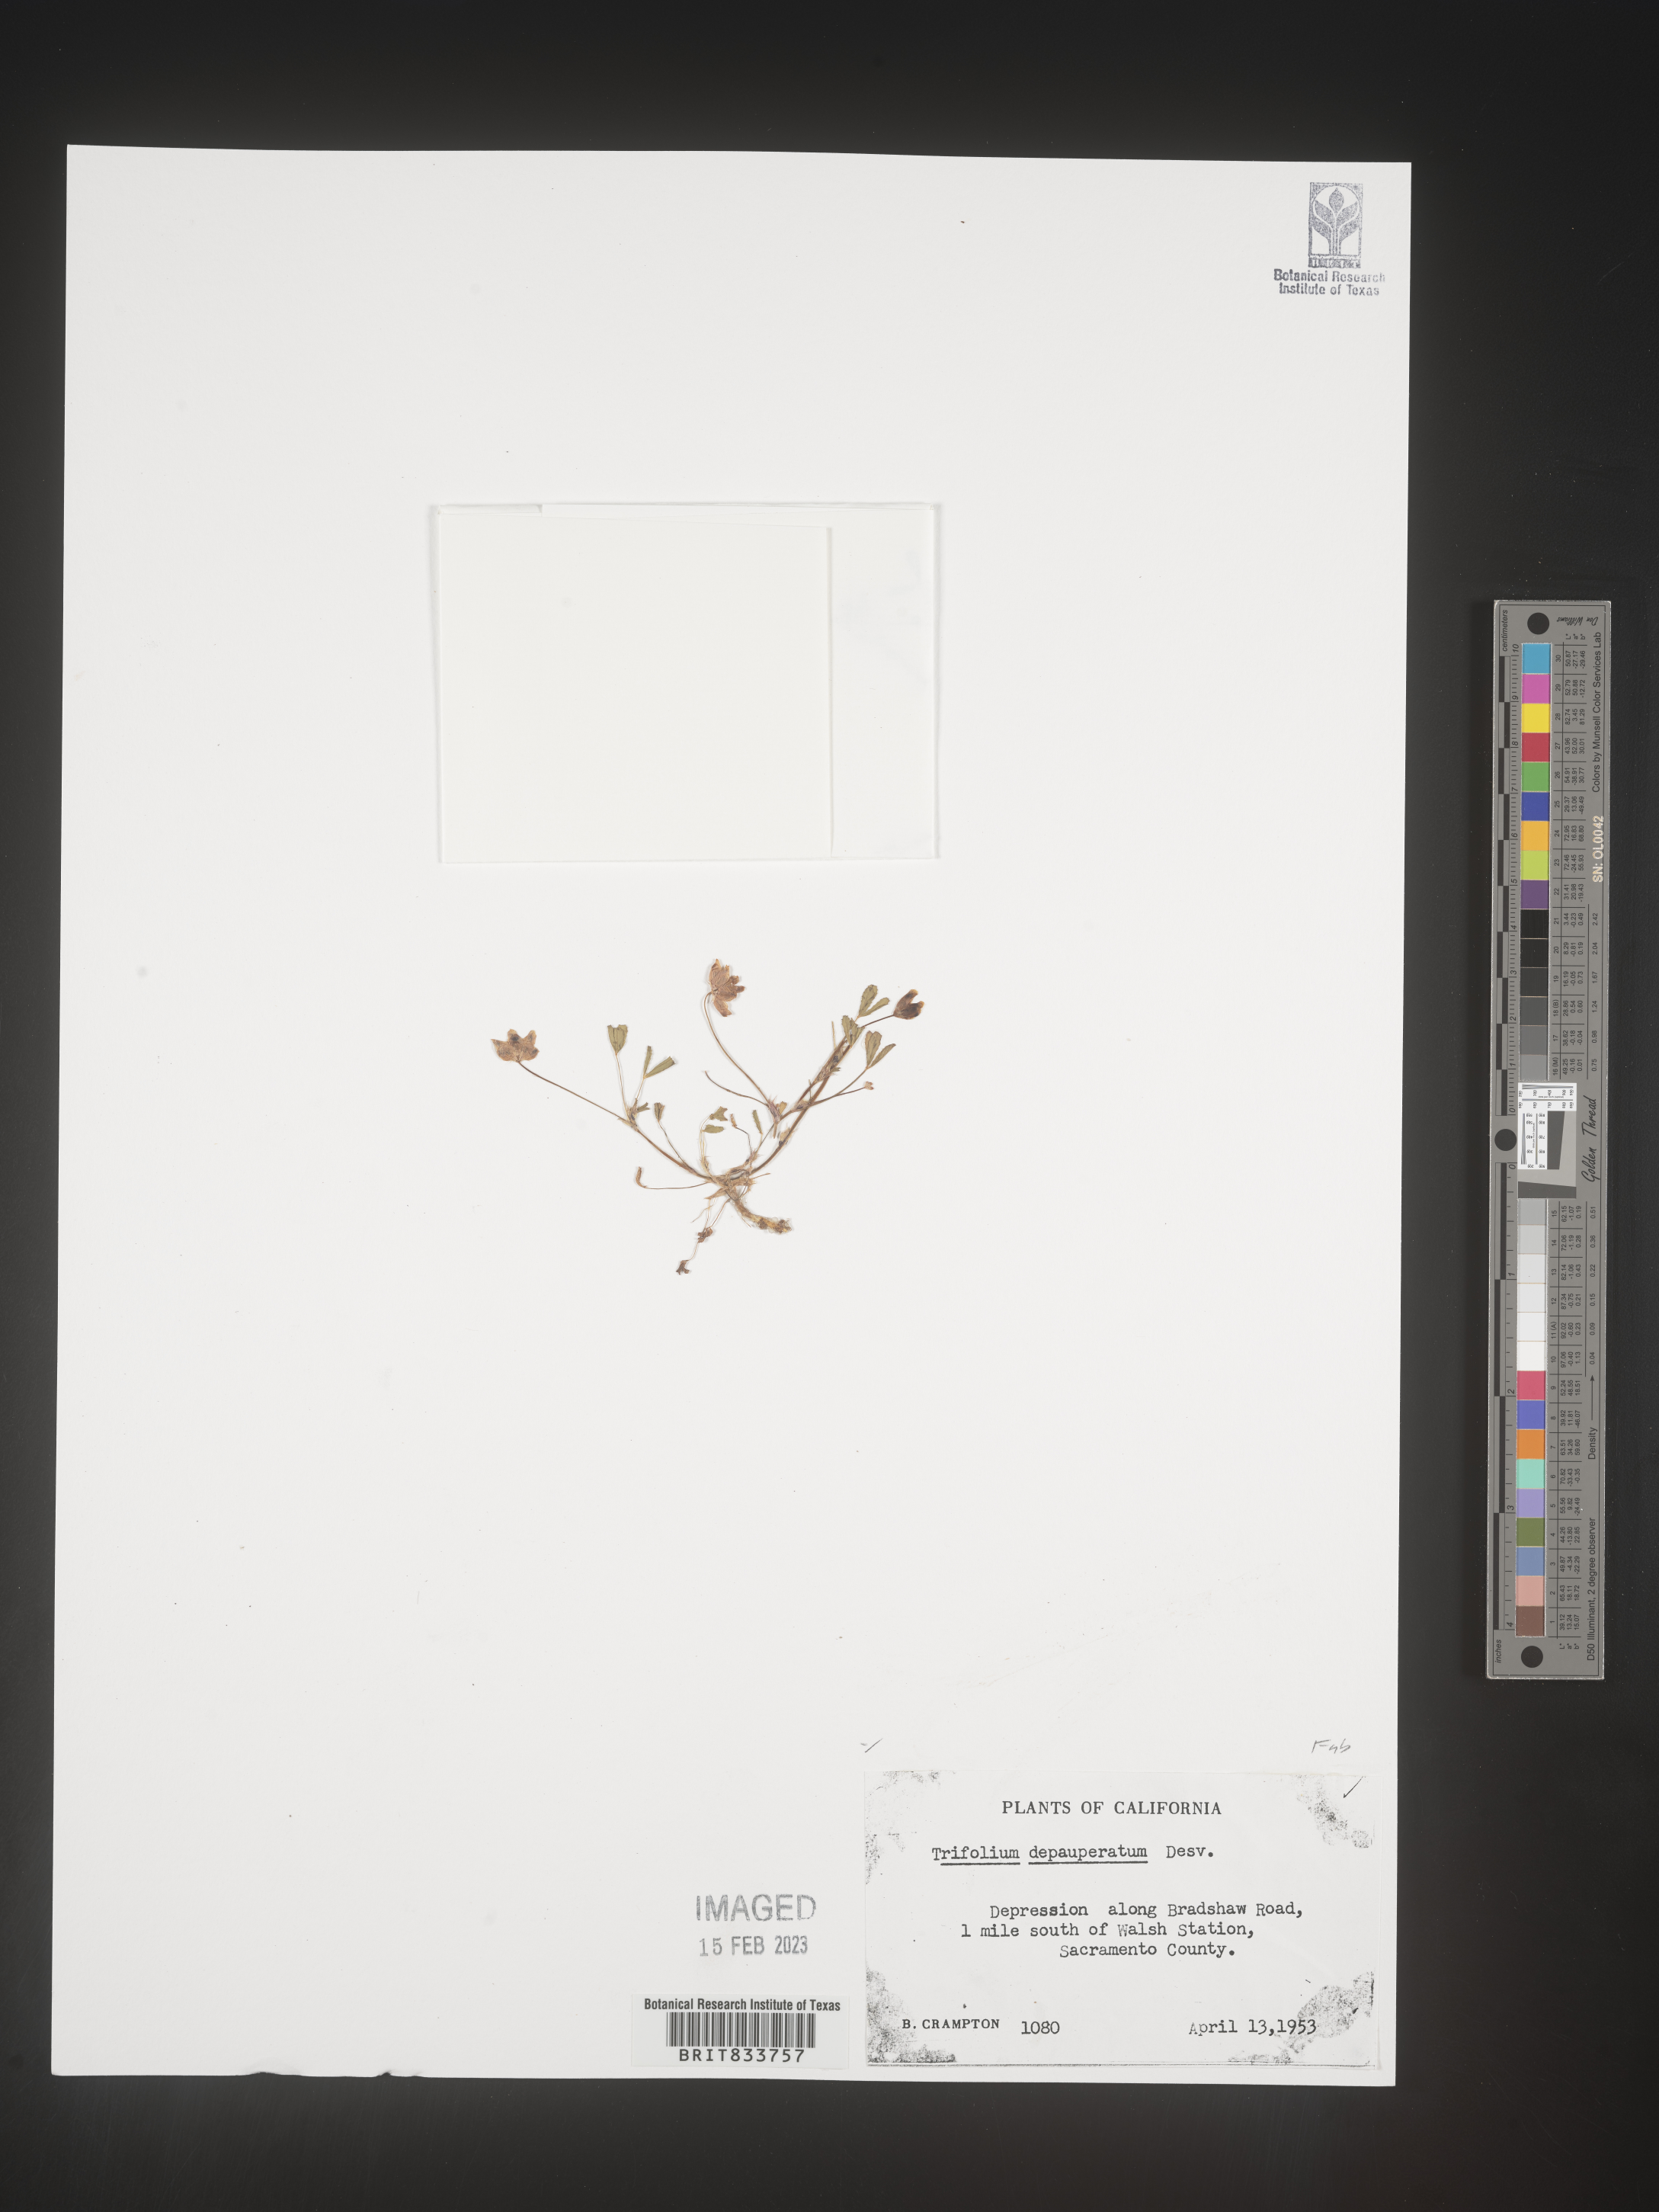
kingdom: Plantae
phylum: Tracheophyta
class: Magnoliopsida
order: Fabales
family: Fabaceae
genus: Trifolium
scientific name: Trifolium
